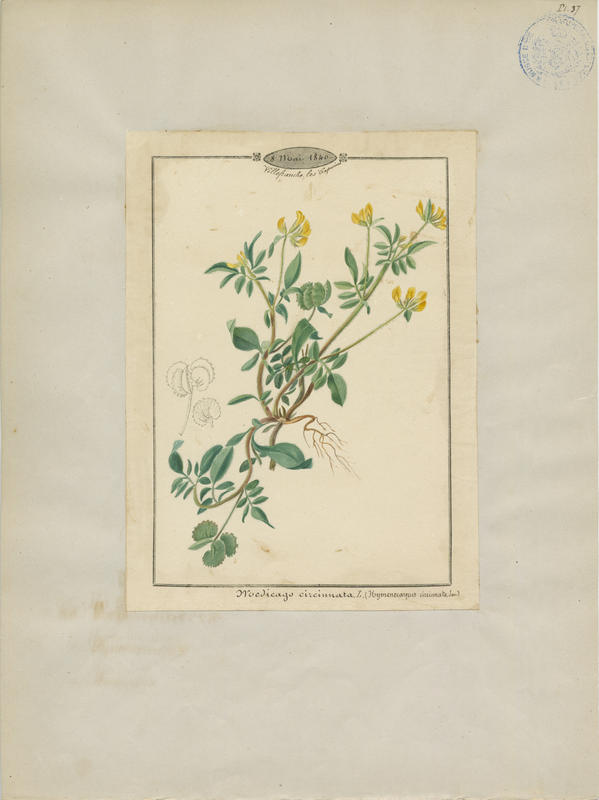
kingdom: Plantae
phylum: Tracheophyta
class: Magnoliopsida
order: Fabales
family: Fabaceae
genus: Anthyllis
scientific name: Anthyllis circinnata
